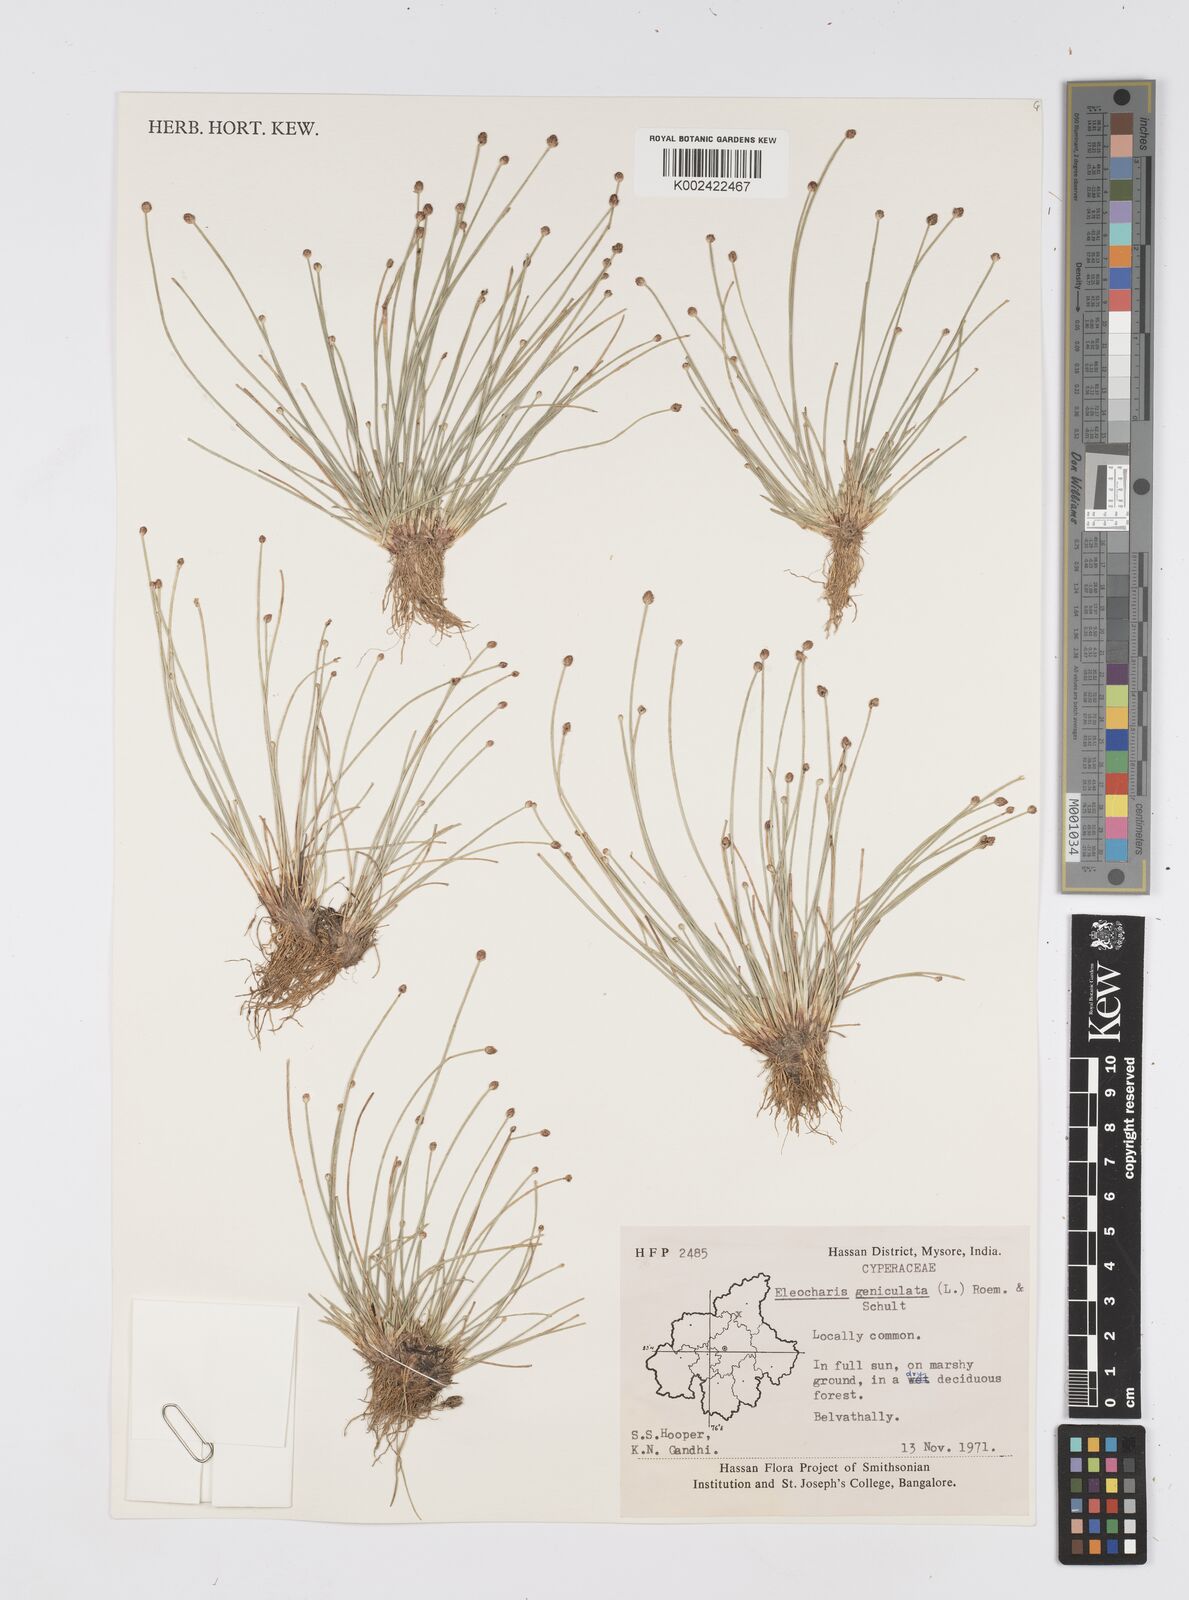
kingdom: Plantae
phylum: Tracheophyta
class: Liliopsida
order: Poales
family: Cyperaceae
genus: Eleocharis
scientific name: Eleocharis geniculata
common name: Canada spikesedge
